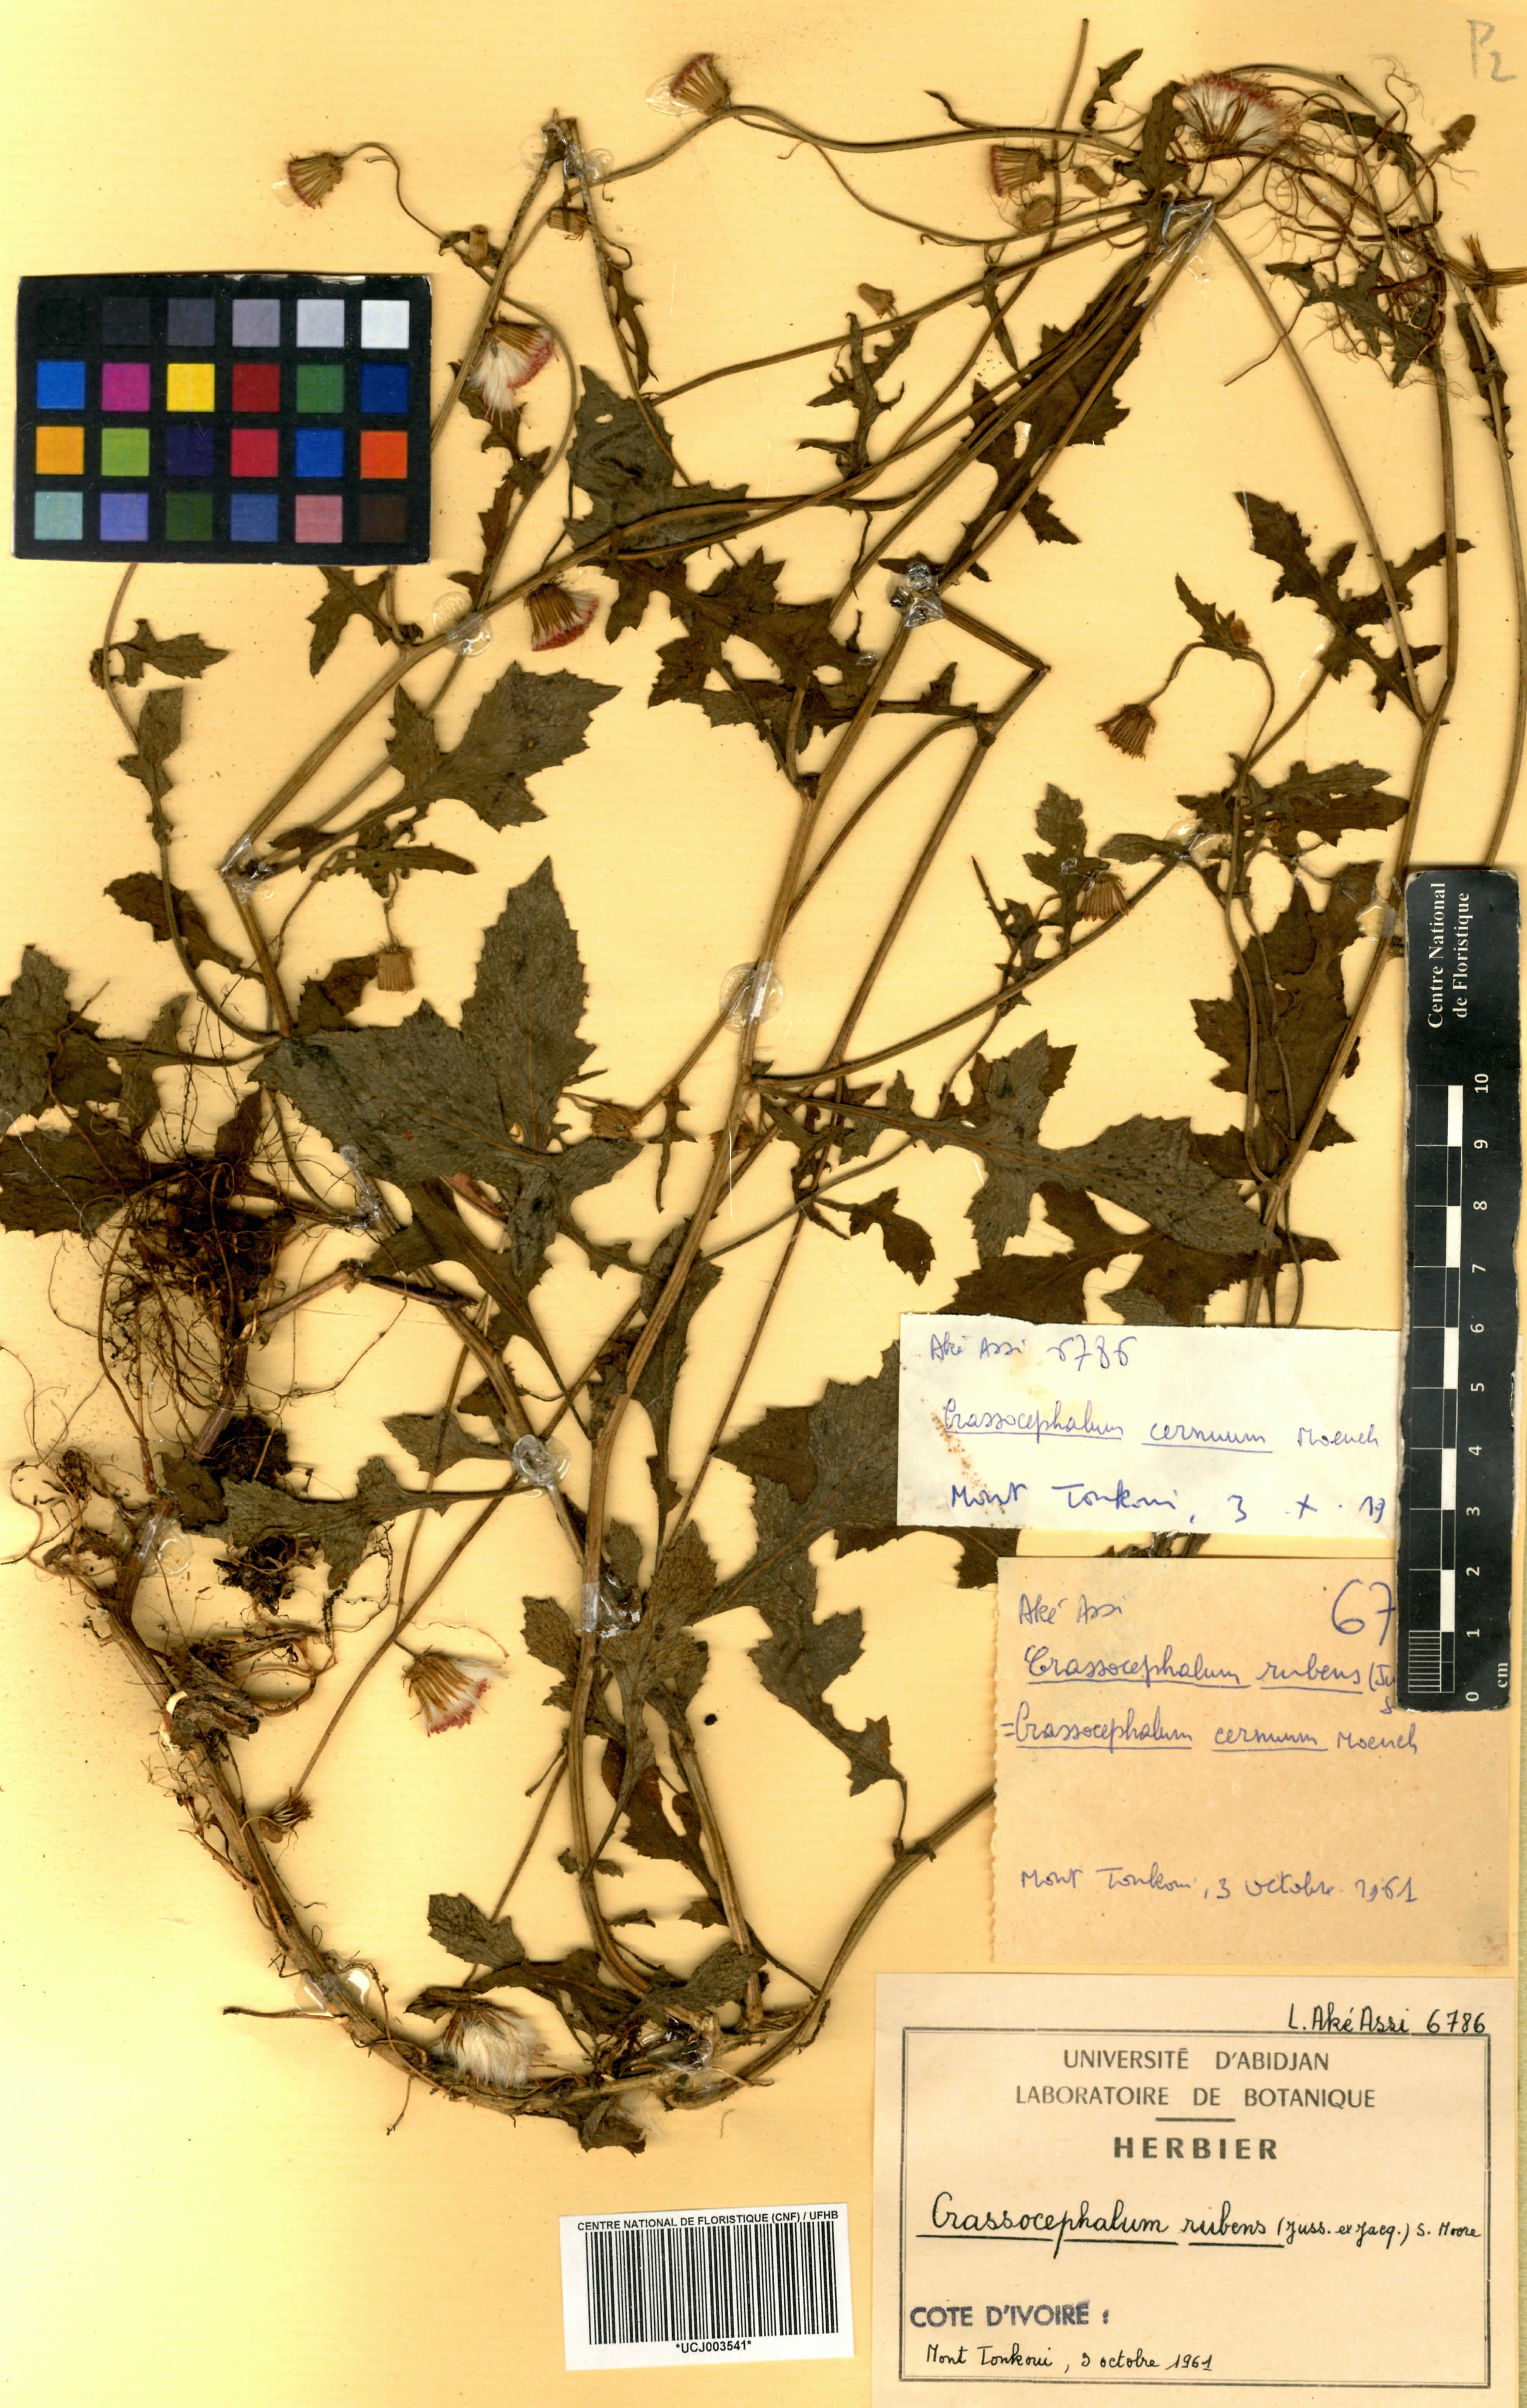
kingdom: Plantae
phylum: Tracheophyta
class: Magnoliopsida
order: Asterales
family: Asteraceae
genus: Crassocephalum
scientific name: Crassocephalum rubens
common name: Yoruban bologi
